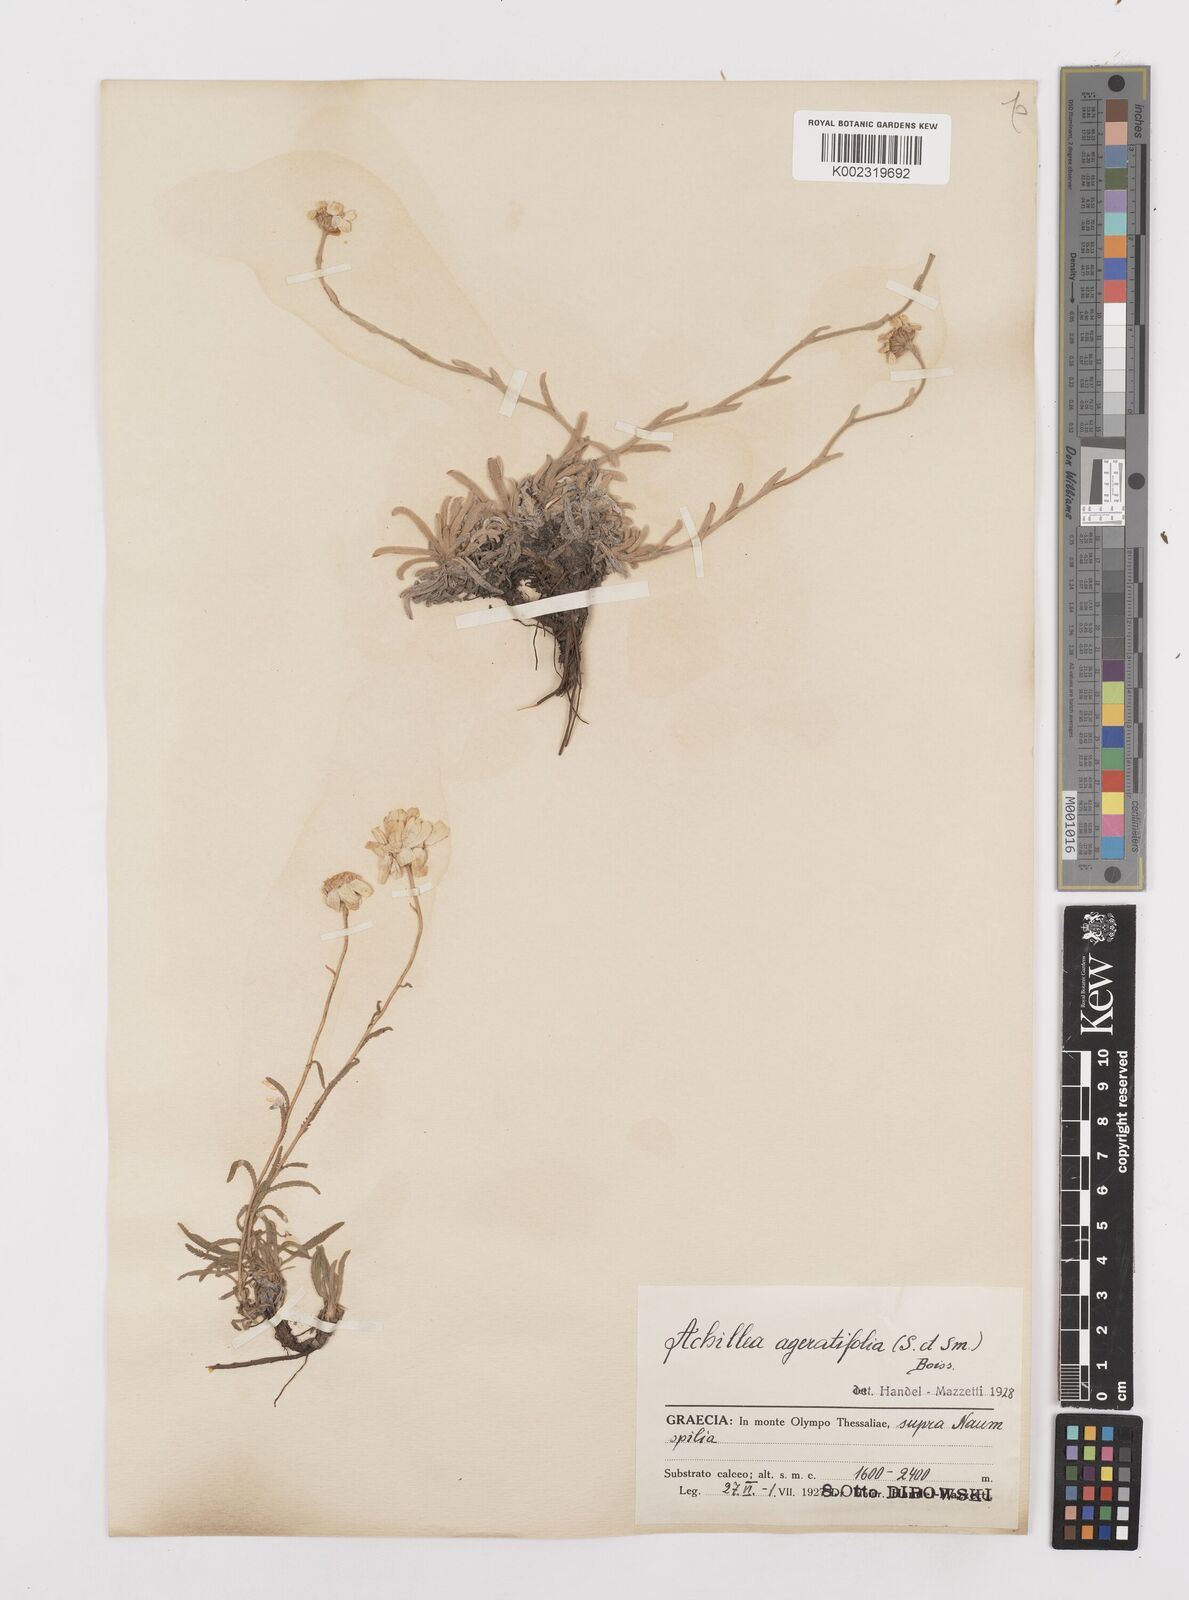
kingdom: Plantae
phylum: Tracheophyta
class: Magnoliopsida
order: Asterales
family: Asteraceae
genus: Achillea
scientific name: Achillea ageratifolia
